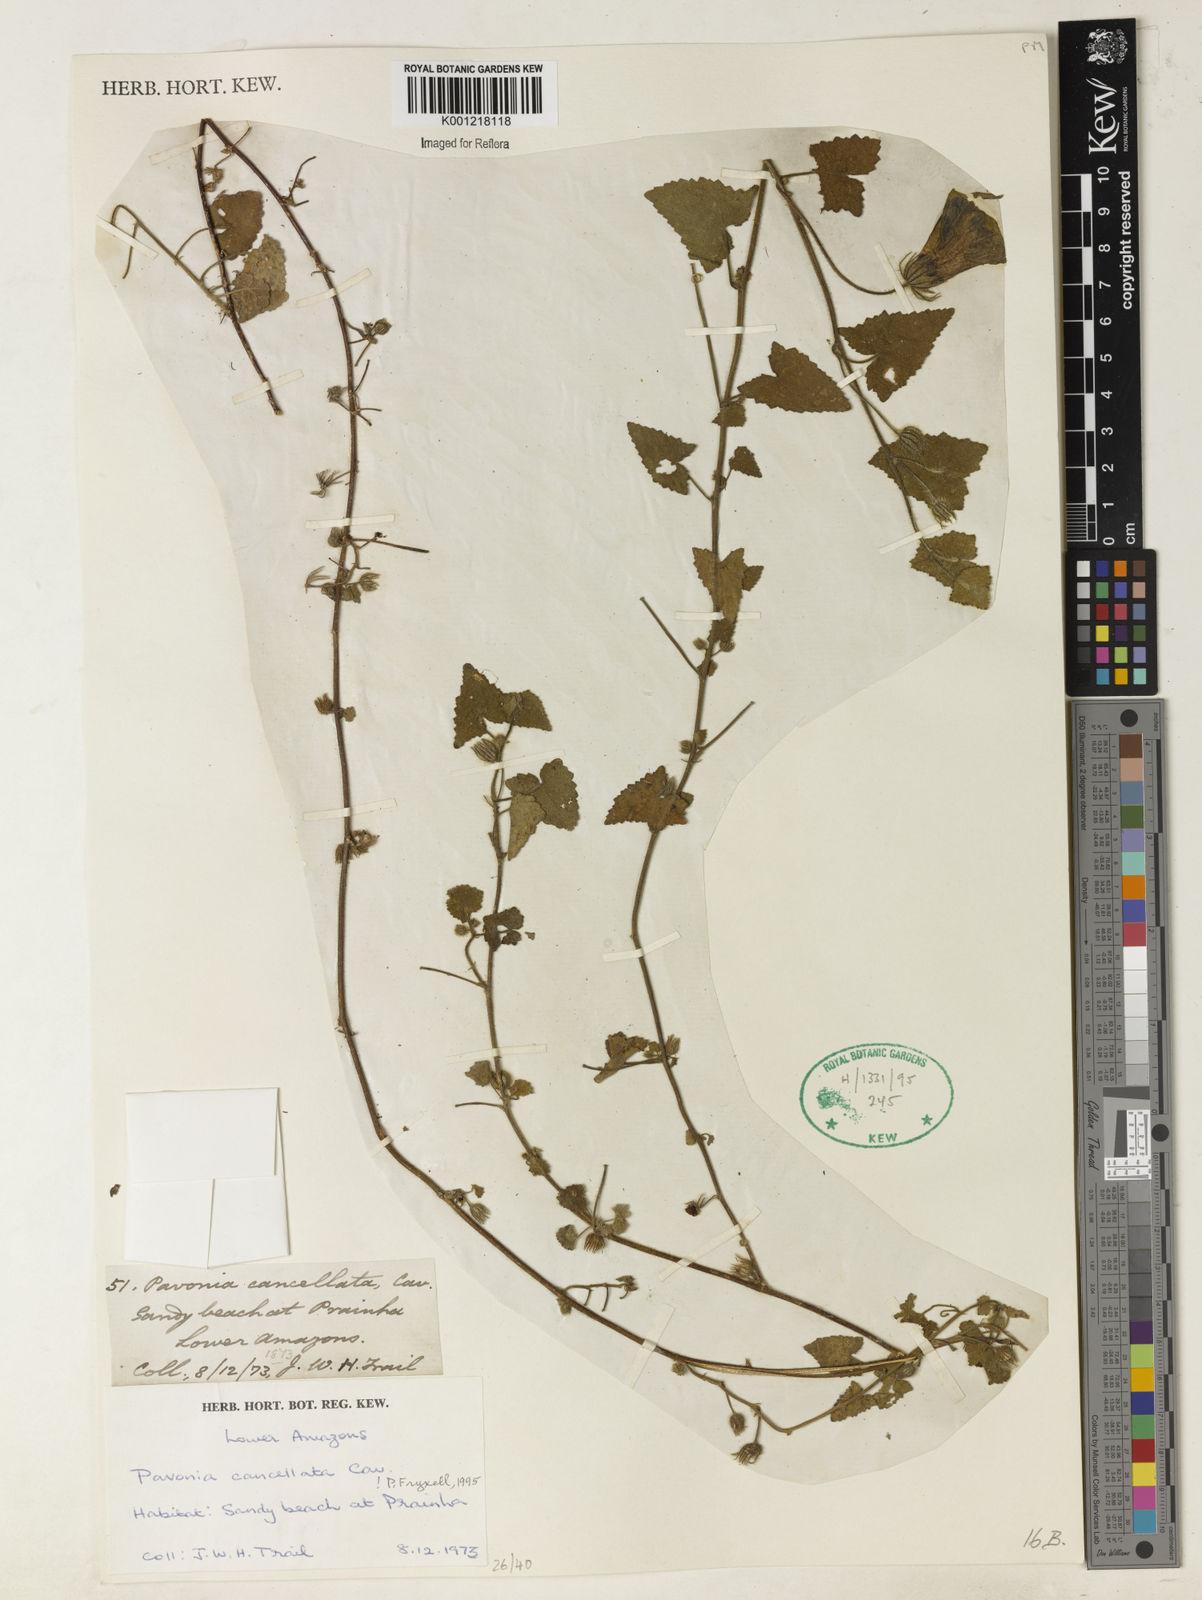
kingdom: Plantae
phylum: Tracheophyta
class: Magnoliopsida
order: Malvales
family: Malvaceae
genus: Pavonia
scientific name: Pavonia cancellata
